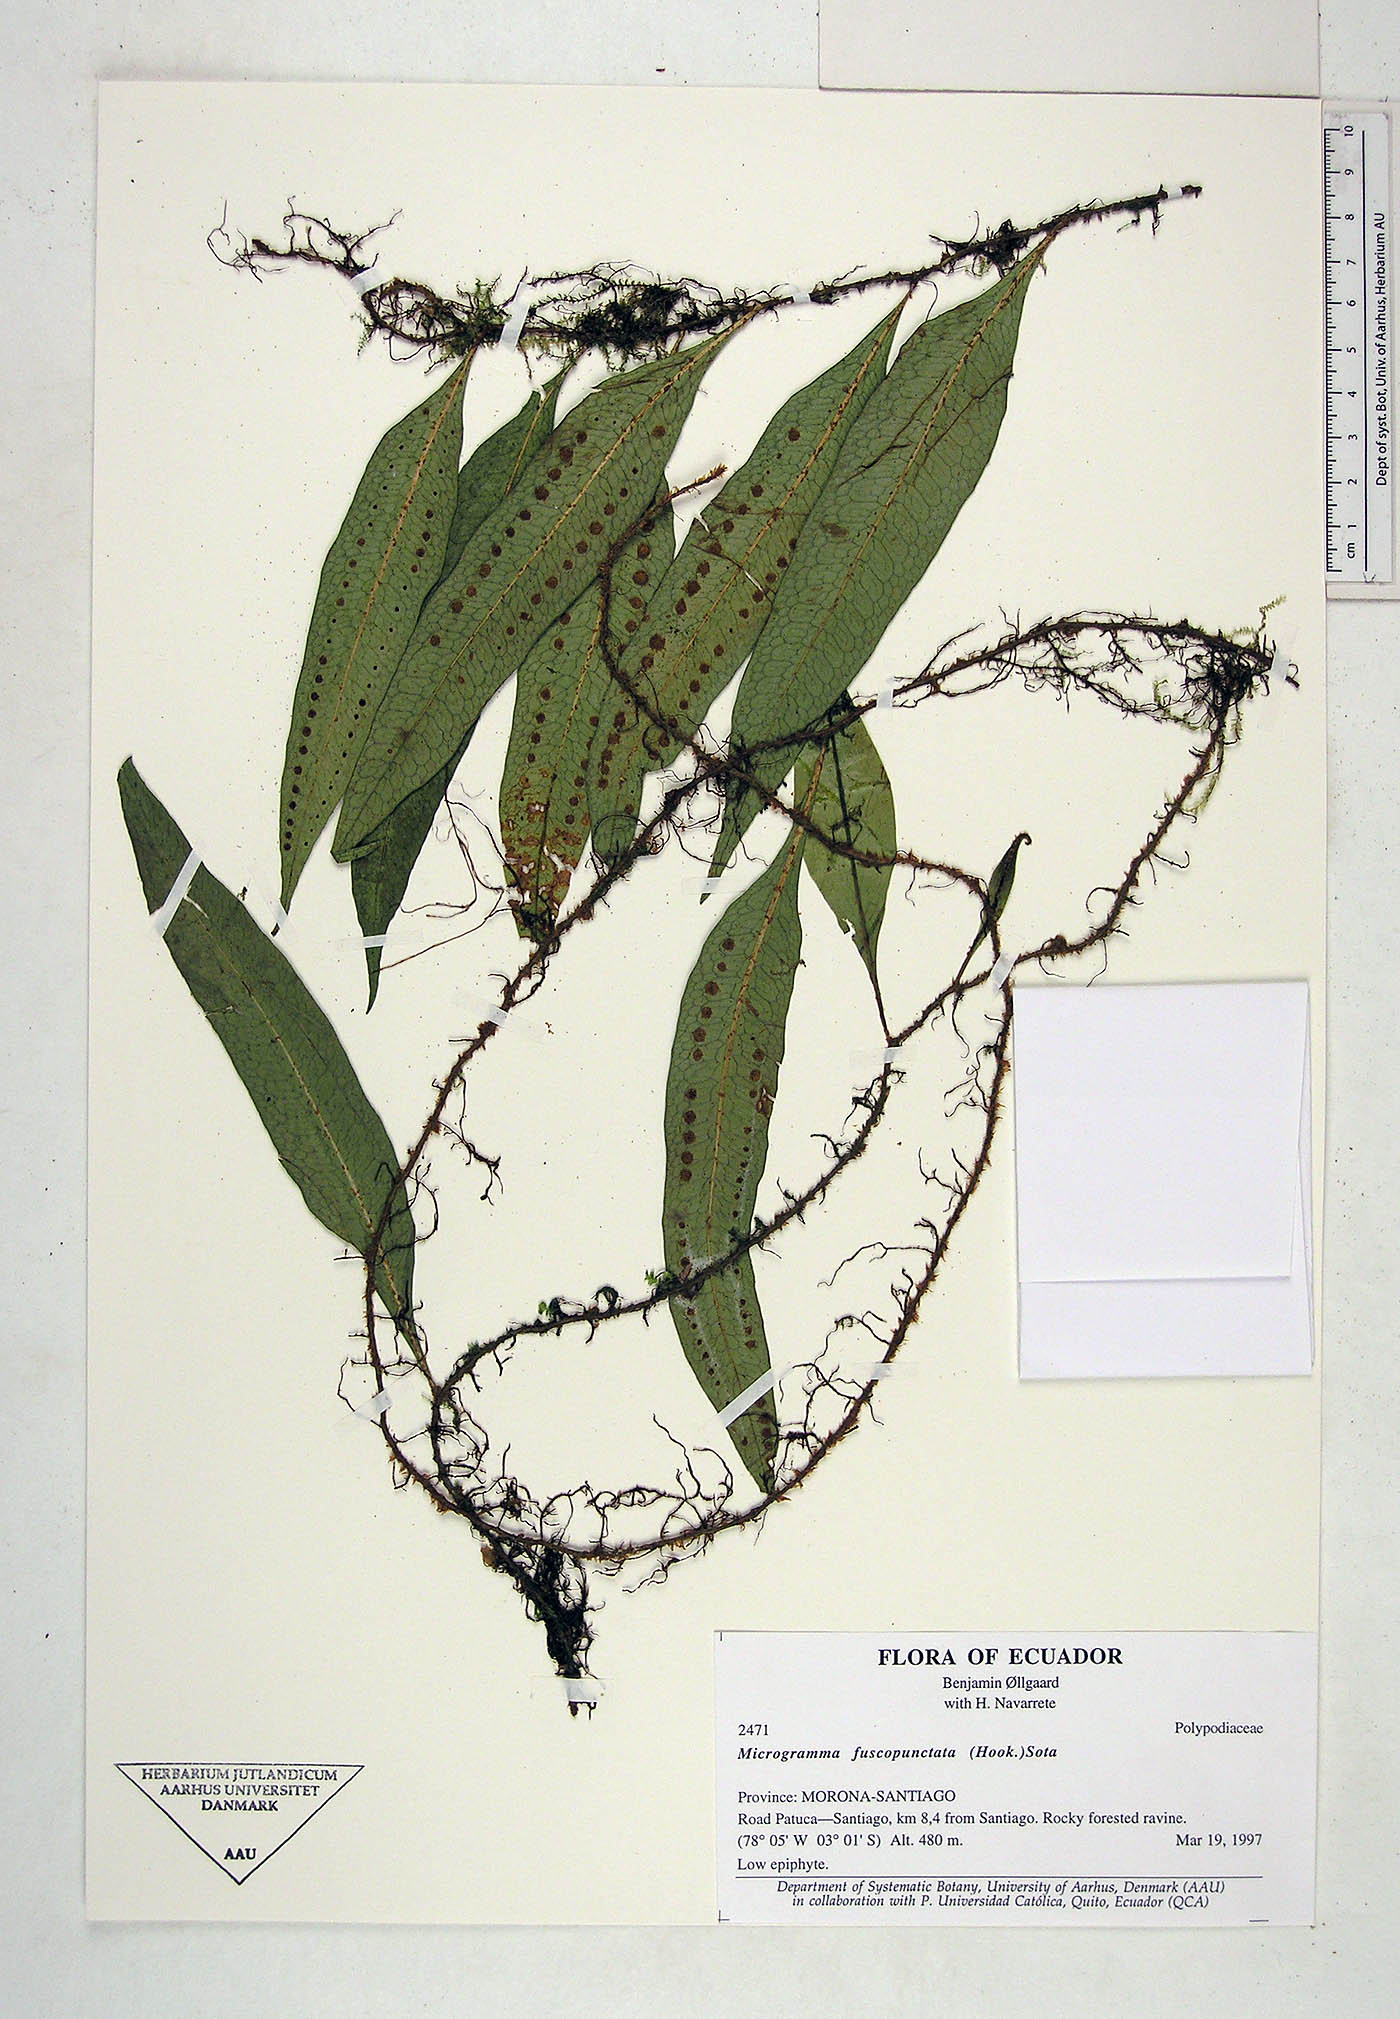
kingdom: Plantae
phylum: Tracheophyta
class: Polypodiopsida
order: Polypodiales
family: Polypodiaceae
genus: Microgramma
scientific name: Microgramma
